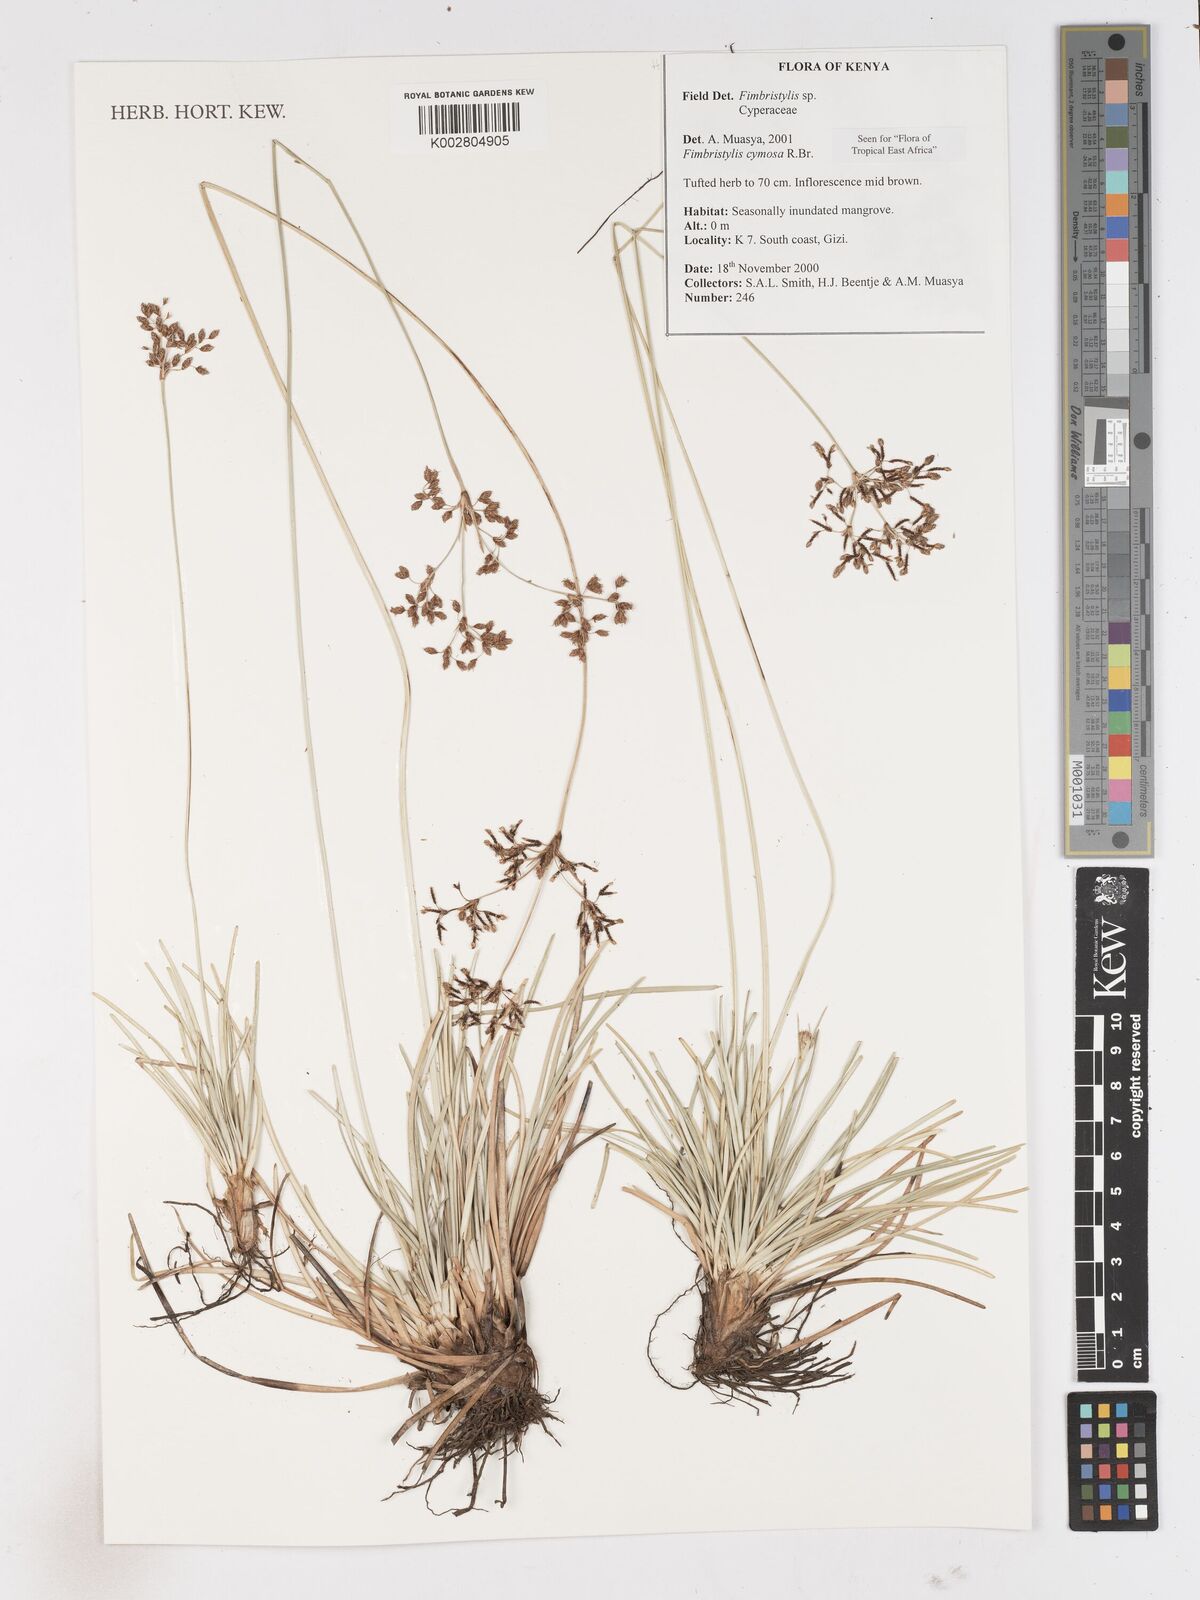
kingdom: Plantae
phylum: Tracheophyta
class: Liliopsida
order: Poales
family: Cyperaceae
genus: Fimbristylis
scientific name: Fimbristylis cymosa
